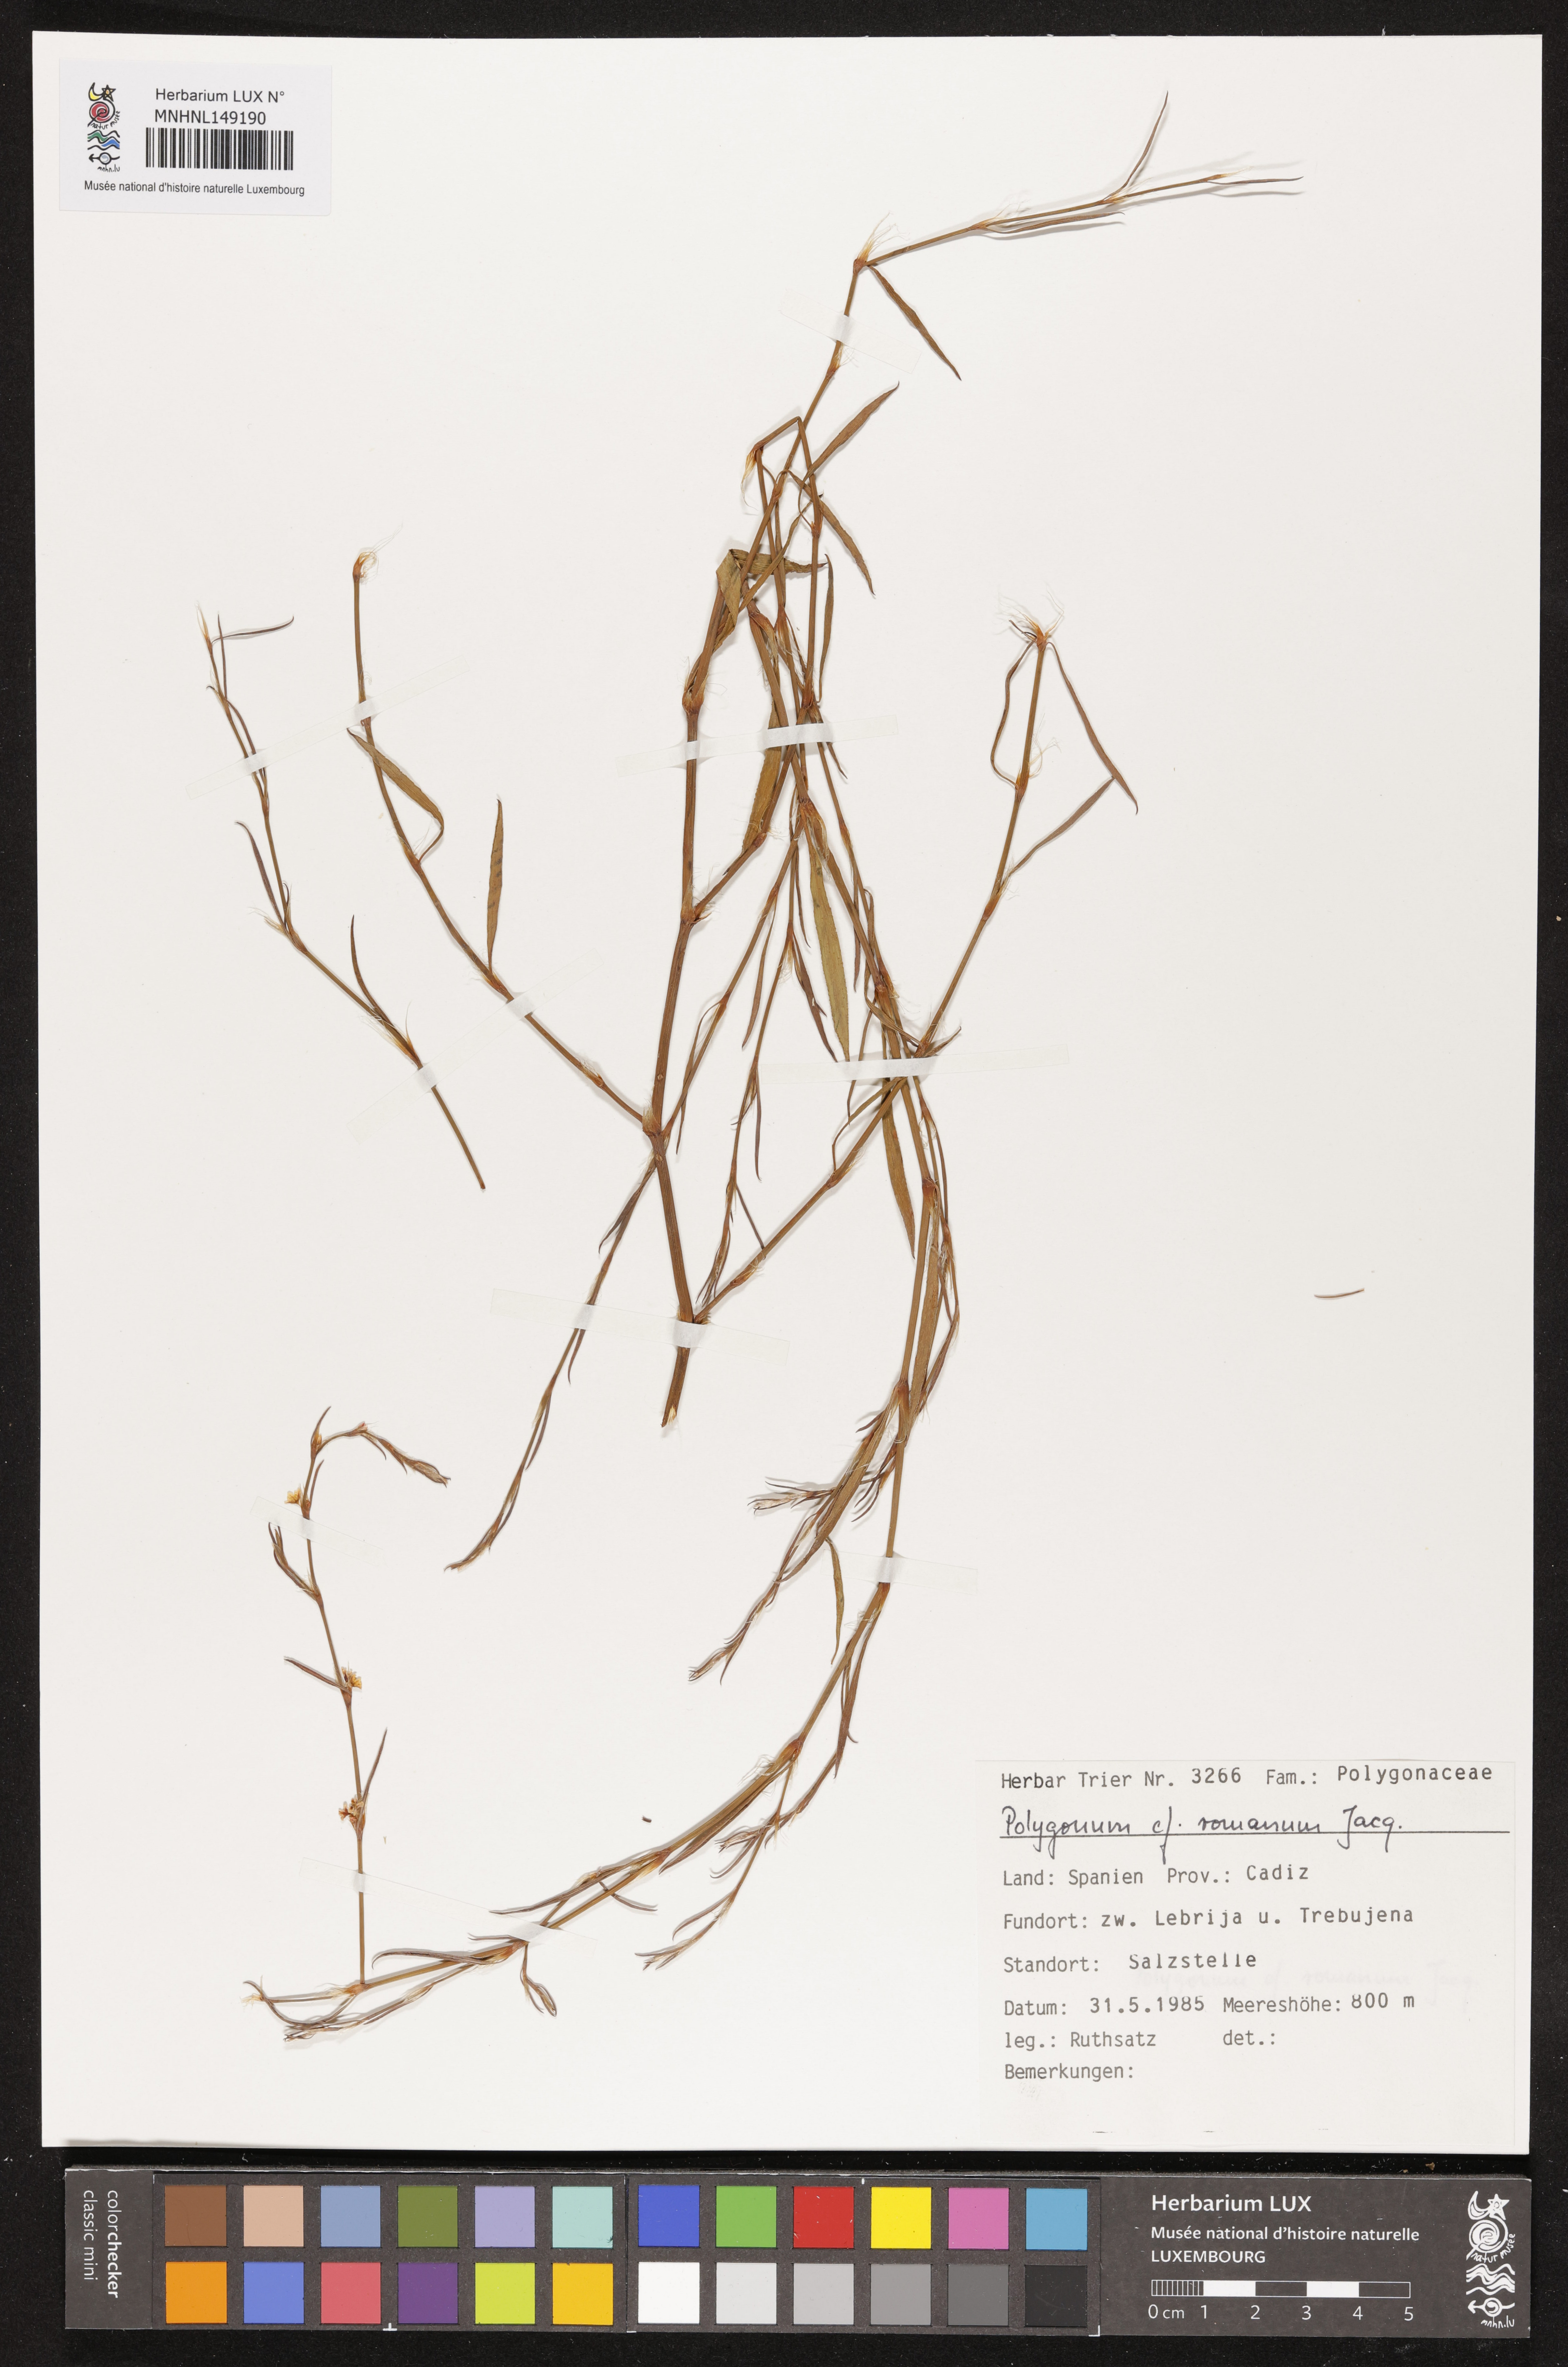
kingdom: Plantae
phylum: Tracheophyta
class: Magnoliopsida
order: Caryophyllales
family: Polygonaceae
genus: Polygonum
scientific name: Polygonum romanum
